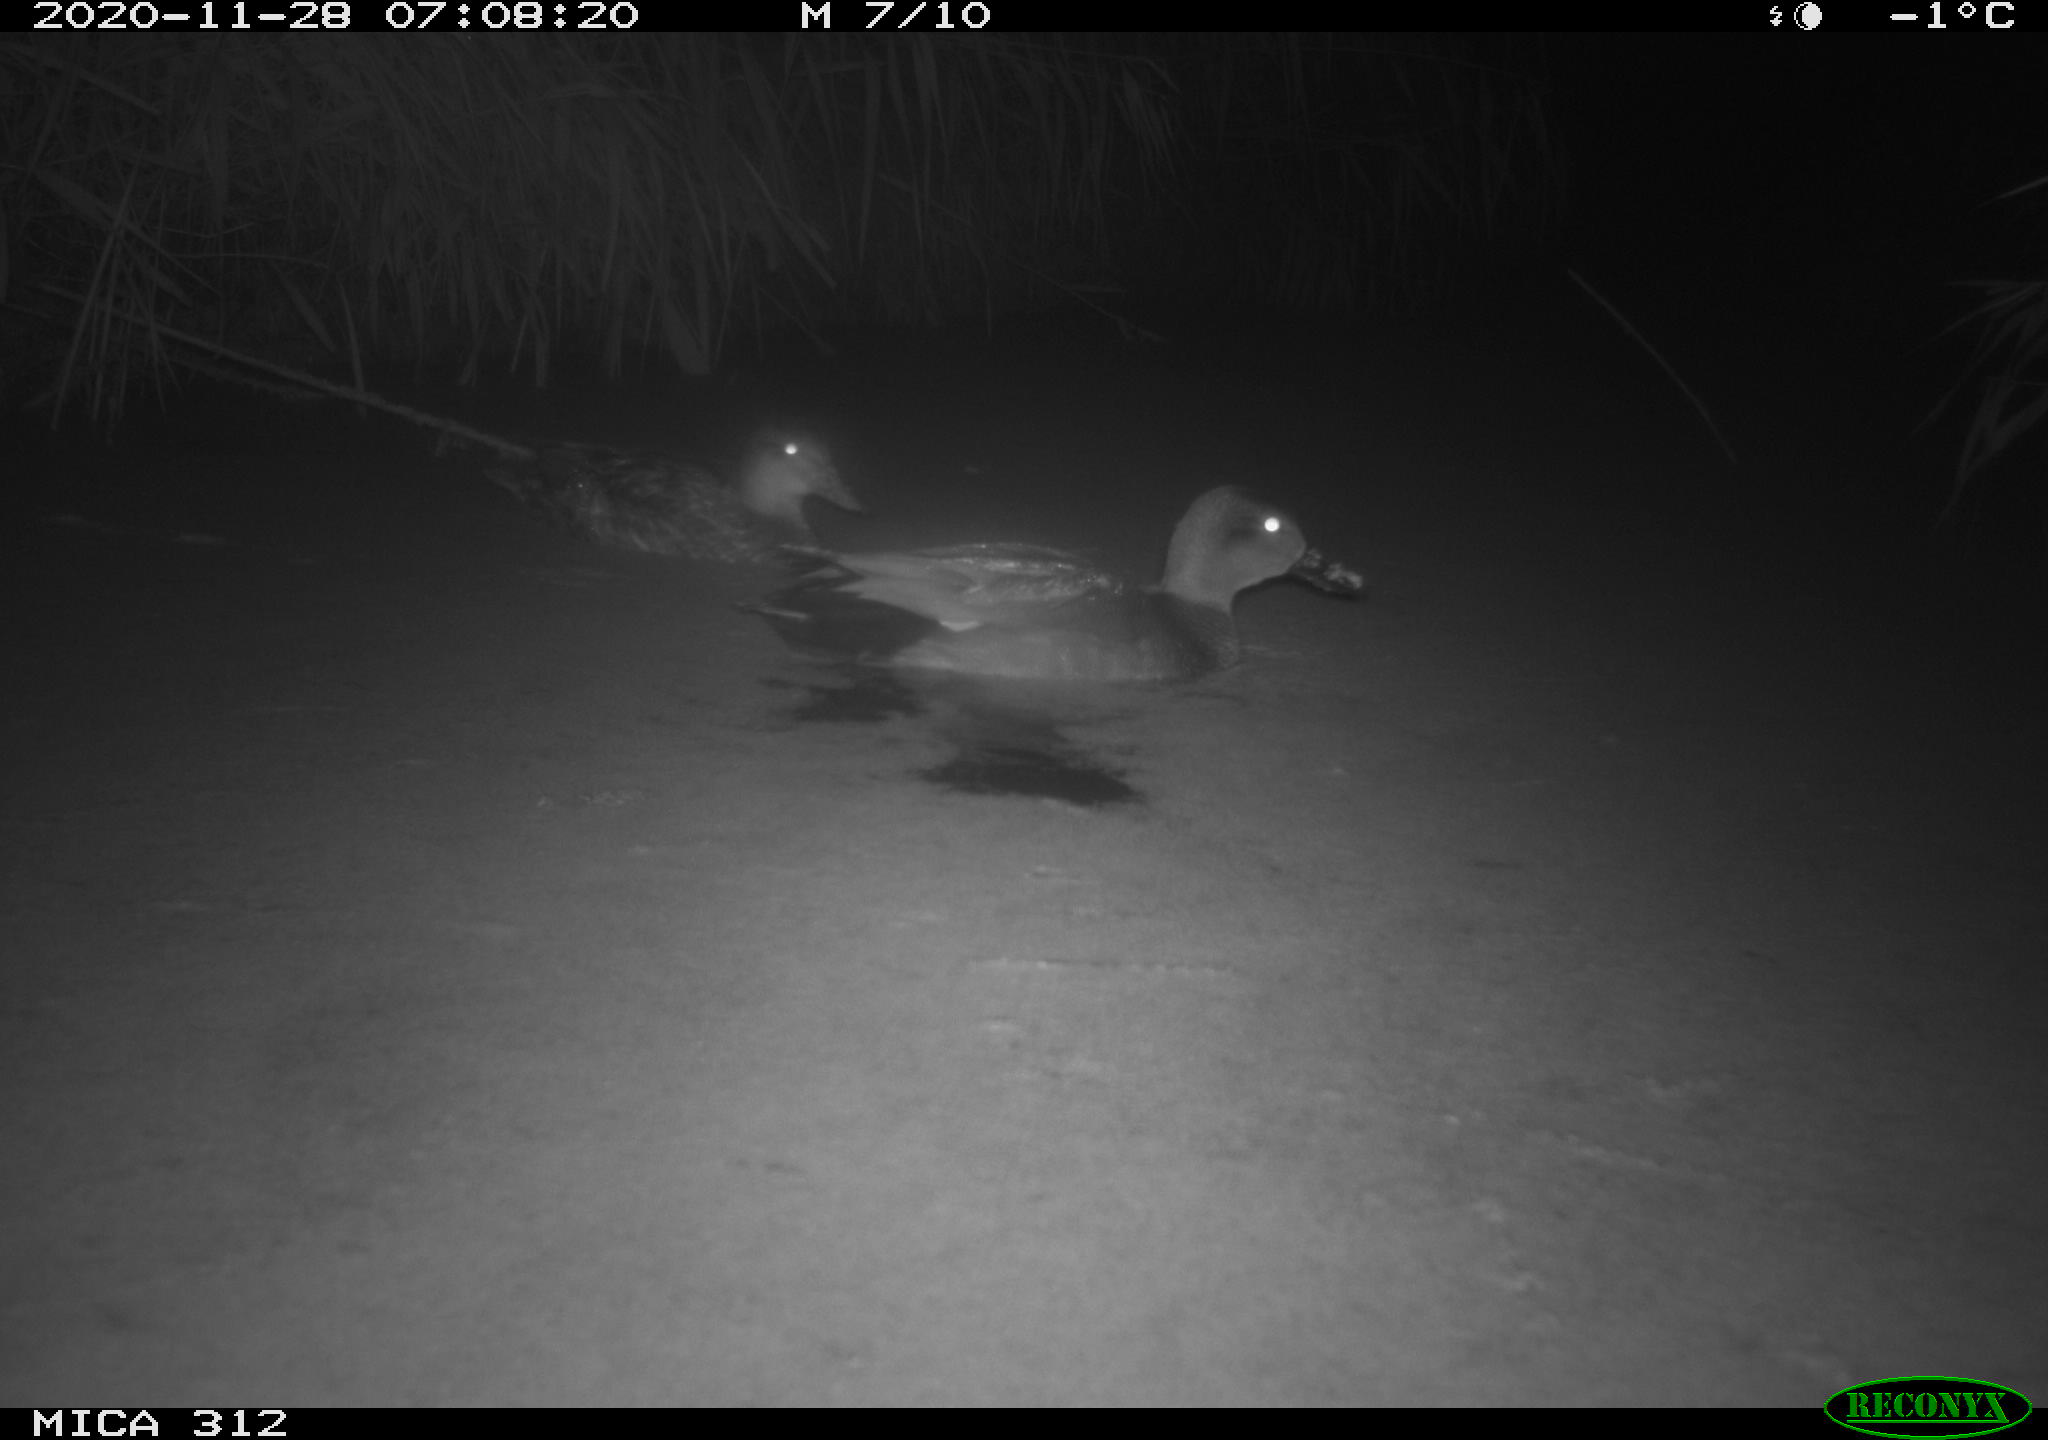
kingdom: Animalia
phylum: Chordata
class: Aves
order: Anseriformes
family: Anatidae
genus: Anas
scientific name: Anas platyrhynchos
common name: Mallard
